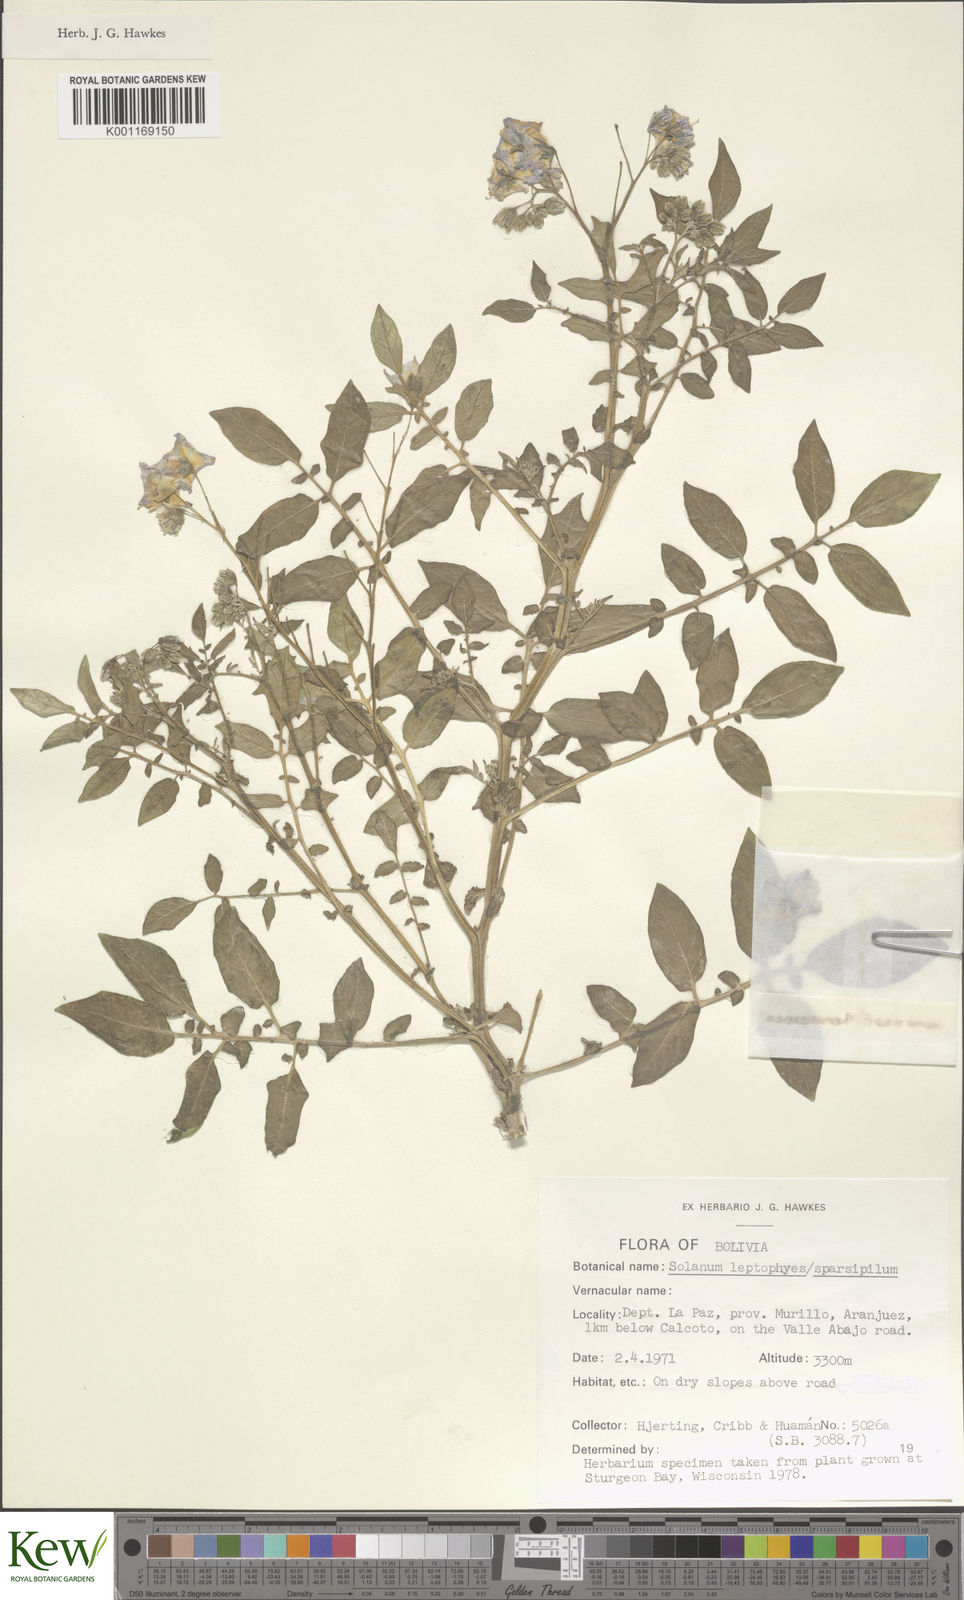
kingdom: Plantae
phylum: Tracheophyta
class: Magnoliopsida
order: Solanales
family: Solanaceae
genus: Solanum
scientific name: Solanum brevicaule
